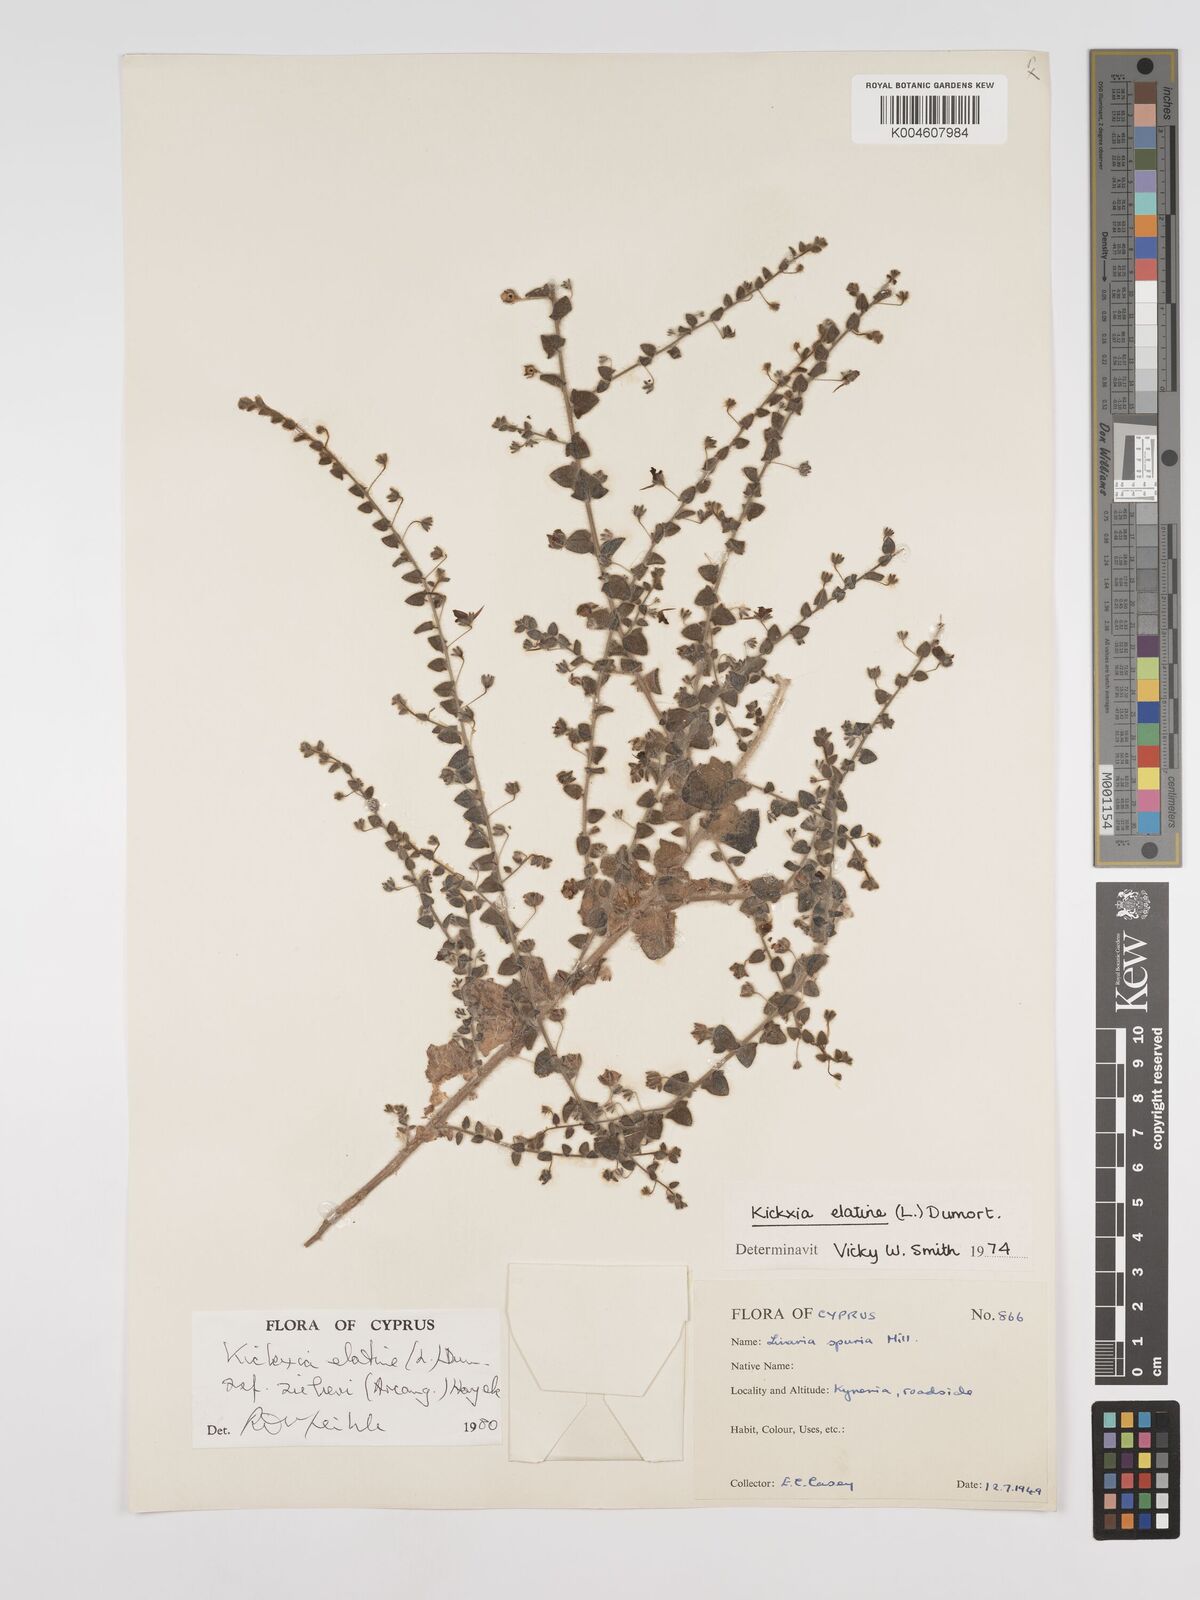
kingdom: Plantae
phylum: Tracheophyta
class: Magnoliopsida
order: Lamiales
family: Plantaginaceae
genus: Kickxia
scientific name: Kickxia elatine
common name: Sharp-leaved fluellen
